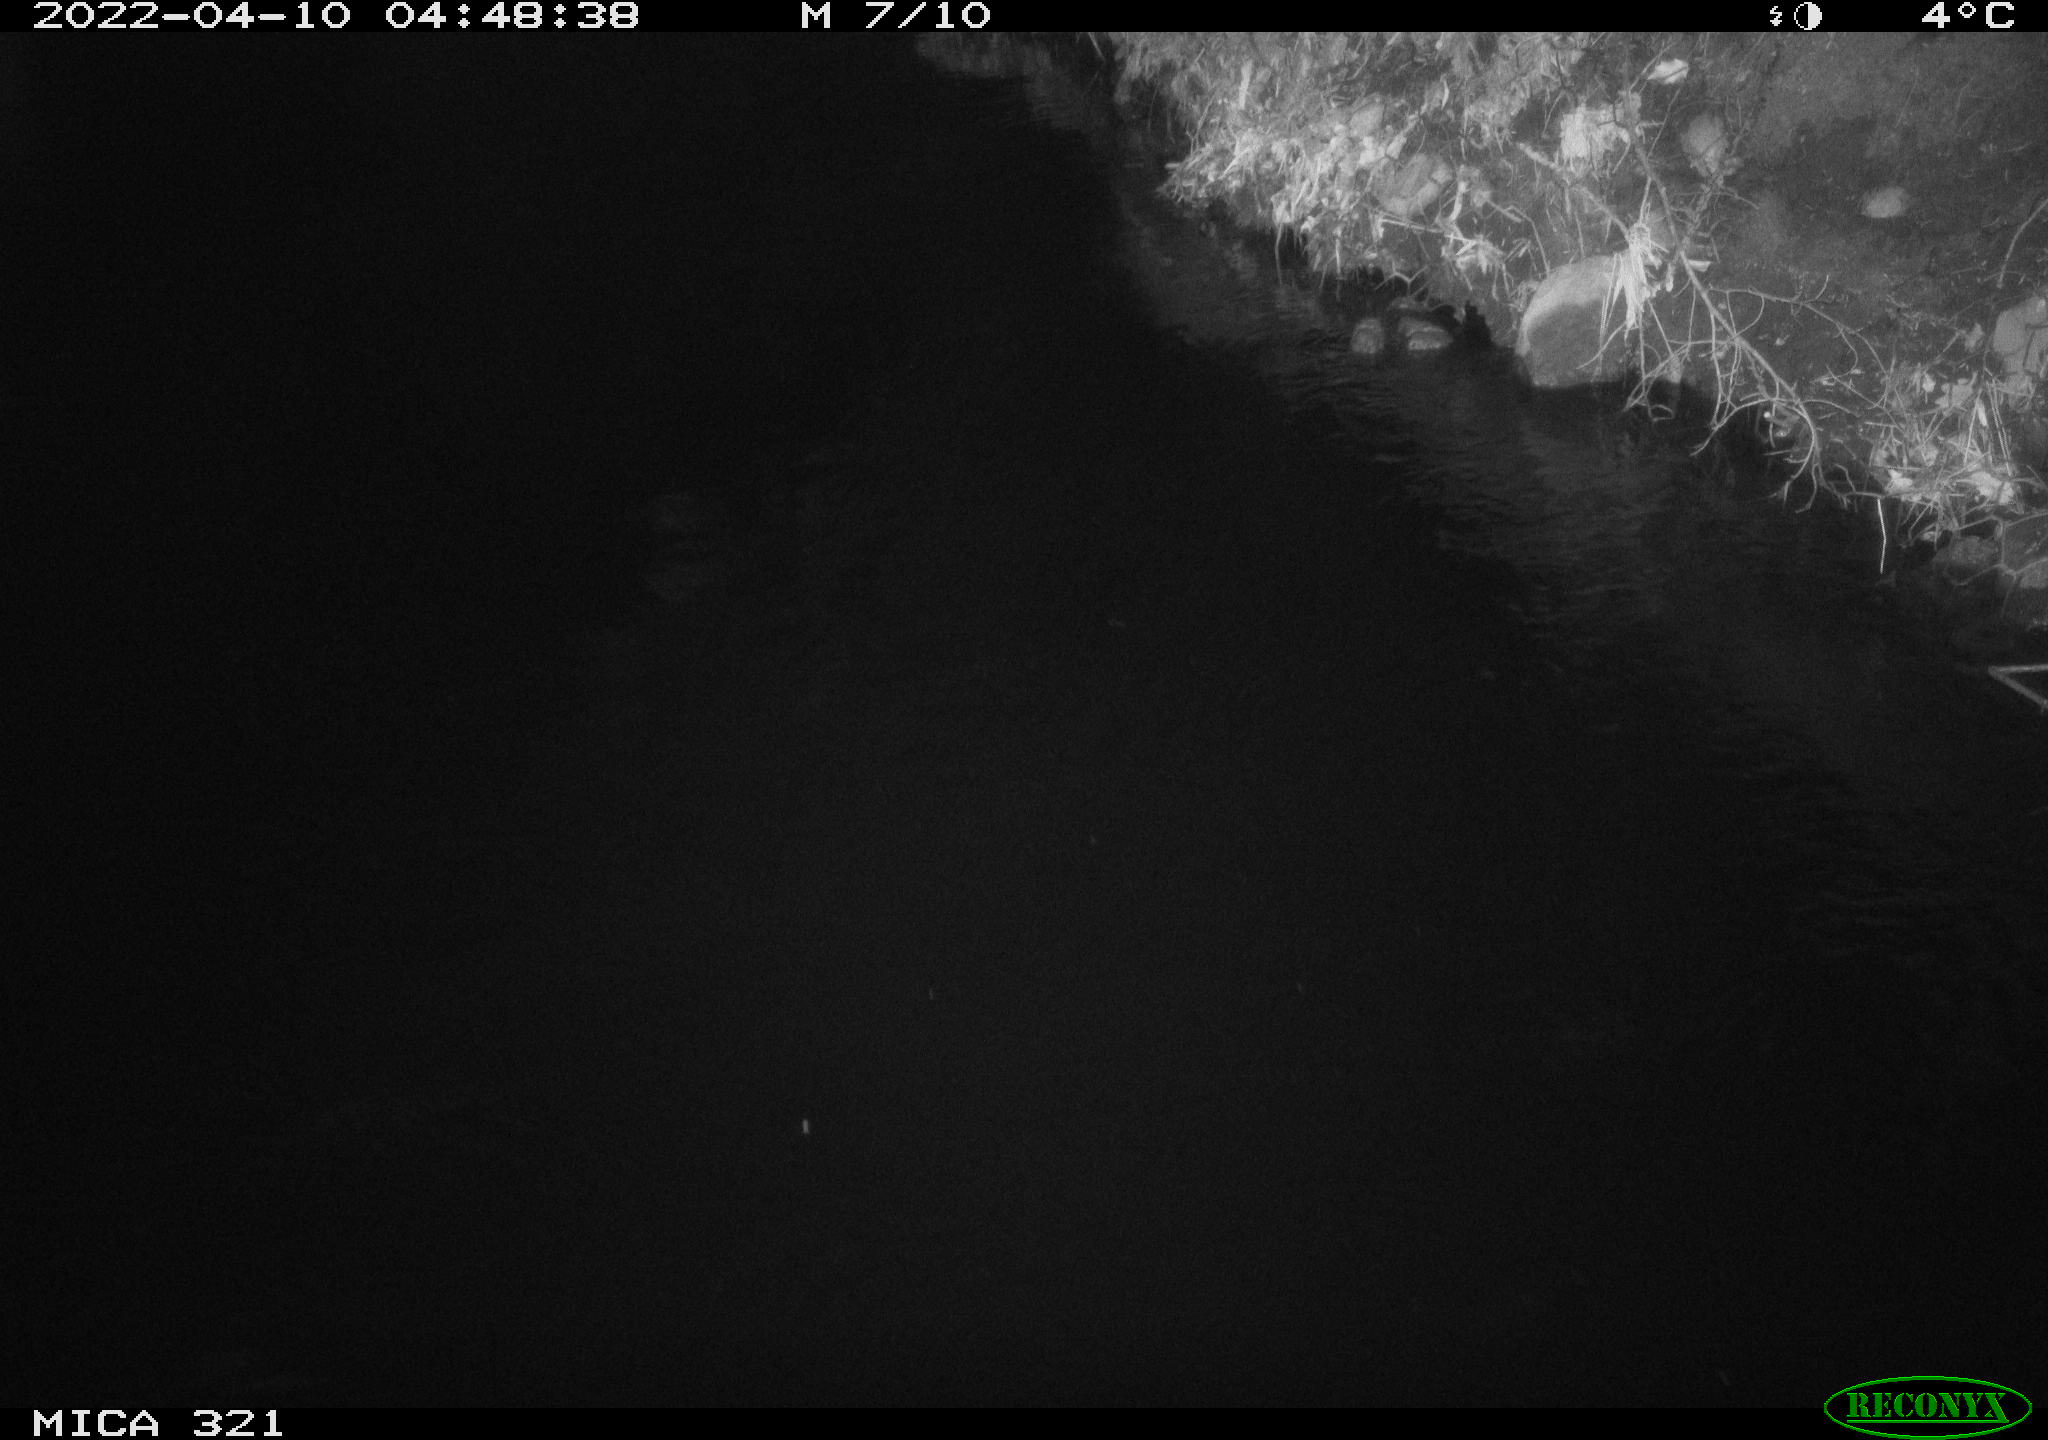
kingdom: Animalia
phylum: Chordata
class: Aves
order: Anseriformes
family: Anatidae
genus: Anas
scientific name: Anas platyrhynchos
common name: Mallard
